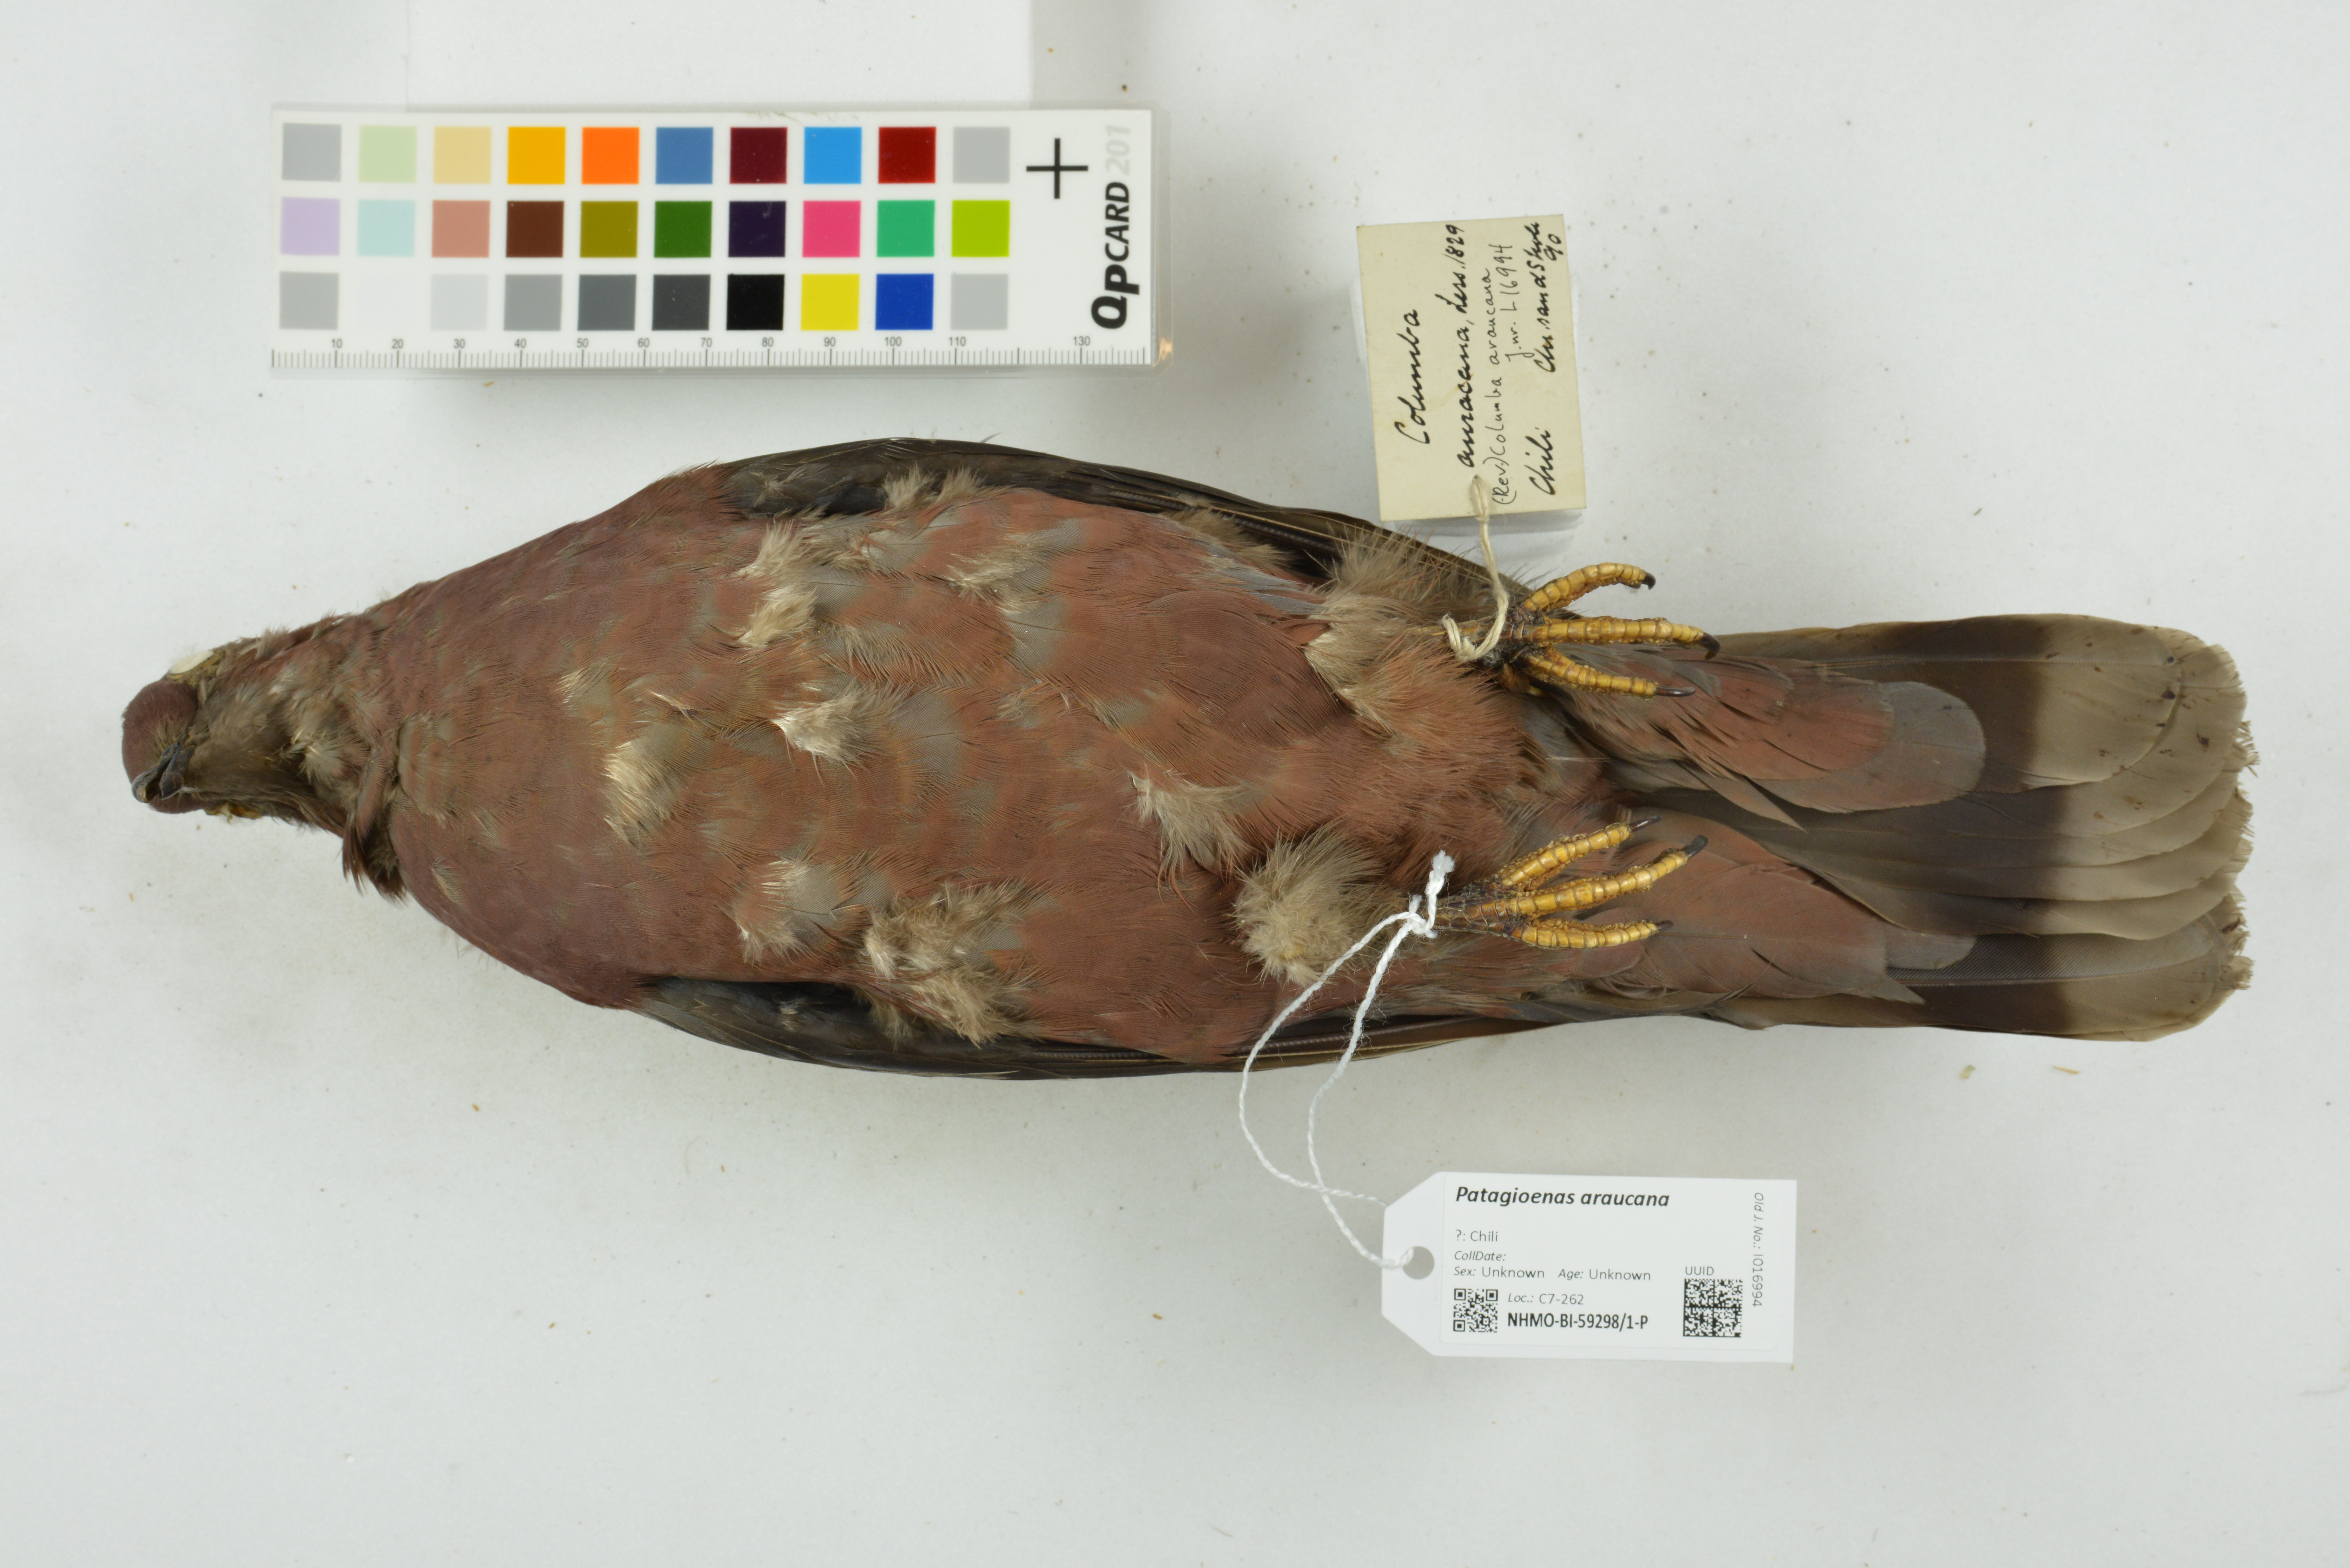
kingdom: Animalia
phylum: Chordata
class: Aves
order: Columbiformes
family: Columbidae
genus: Patagioenas
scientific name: Patagioenas araucana
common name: Chilean pigeon
